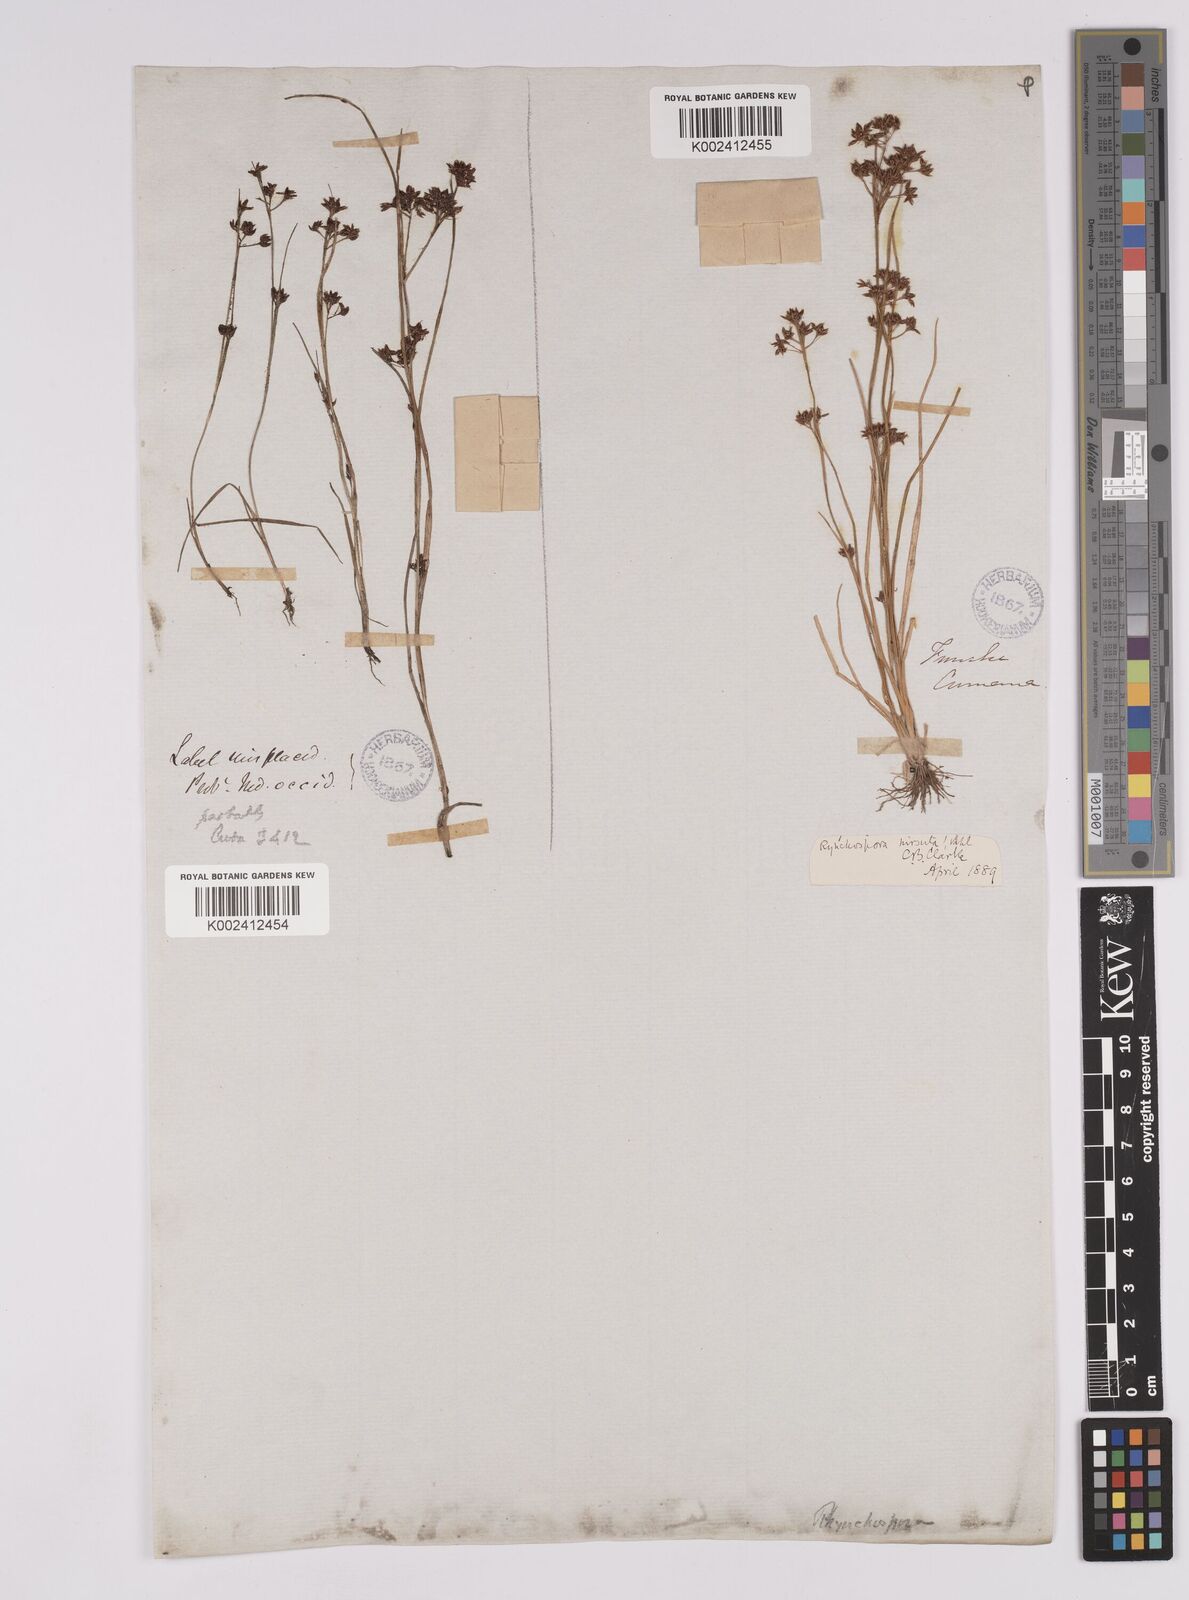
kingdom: Plantae
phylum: Tracheophyta
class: Liliopsida
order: Poales
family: Cyperaceae
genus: Rhynchospora
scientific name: Rhynchospora hirsuta
